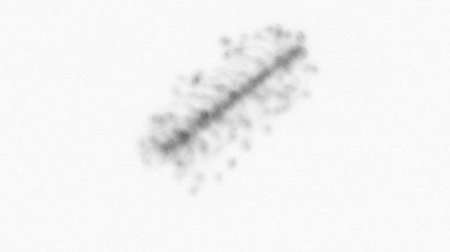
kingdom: Chromista
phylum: Ochrophyta
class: Bacillariophyceae
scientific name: Bacillariophyceae
